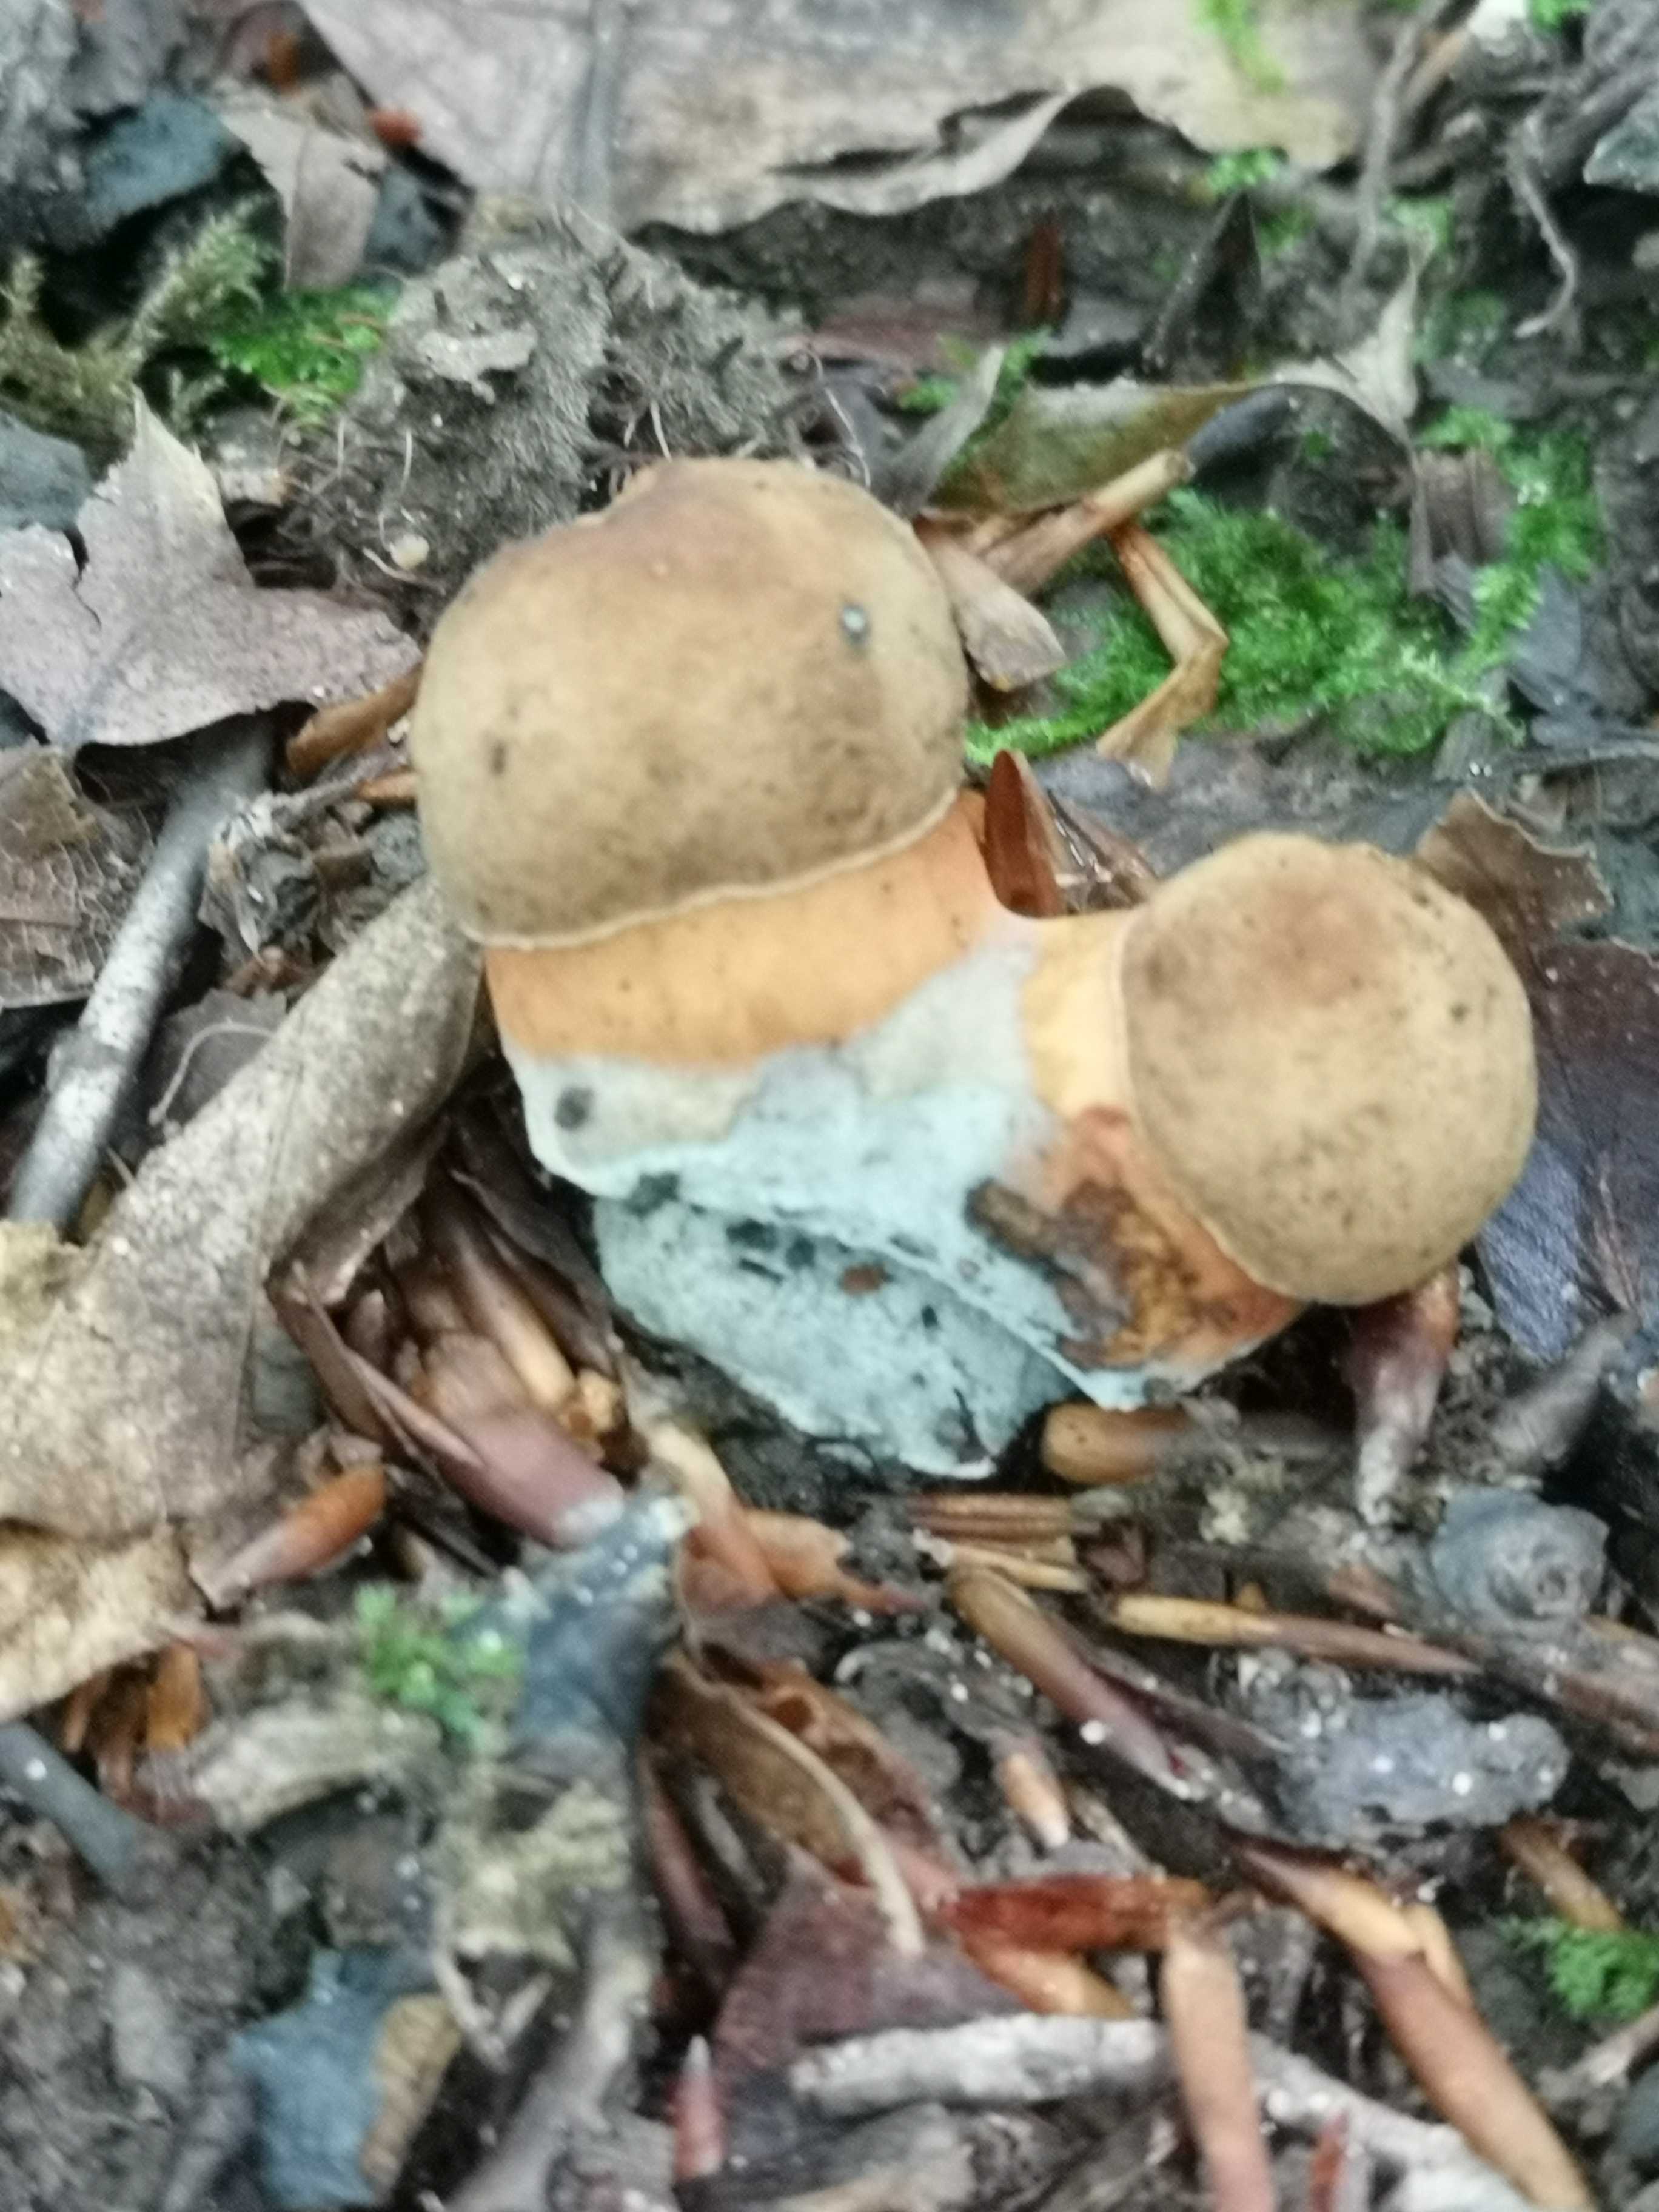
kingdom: Fungi
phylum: Basidiomycota
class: Agaricomycetes
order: Boletales
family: Boletaceae
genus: Neoboletus
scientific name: Neoboletus
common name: indigorørhat
